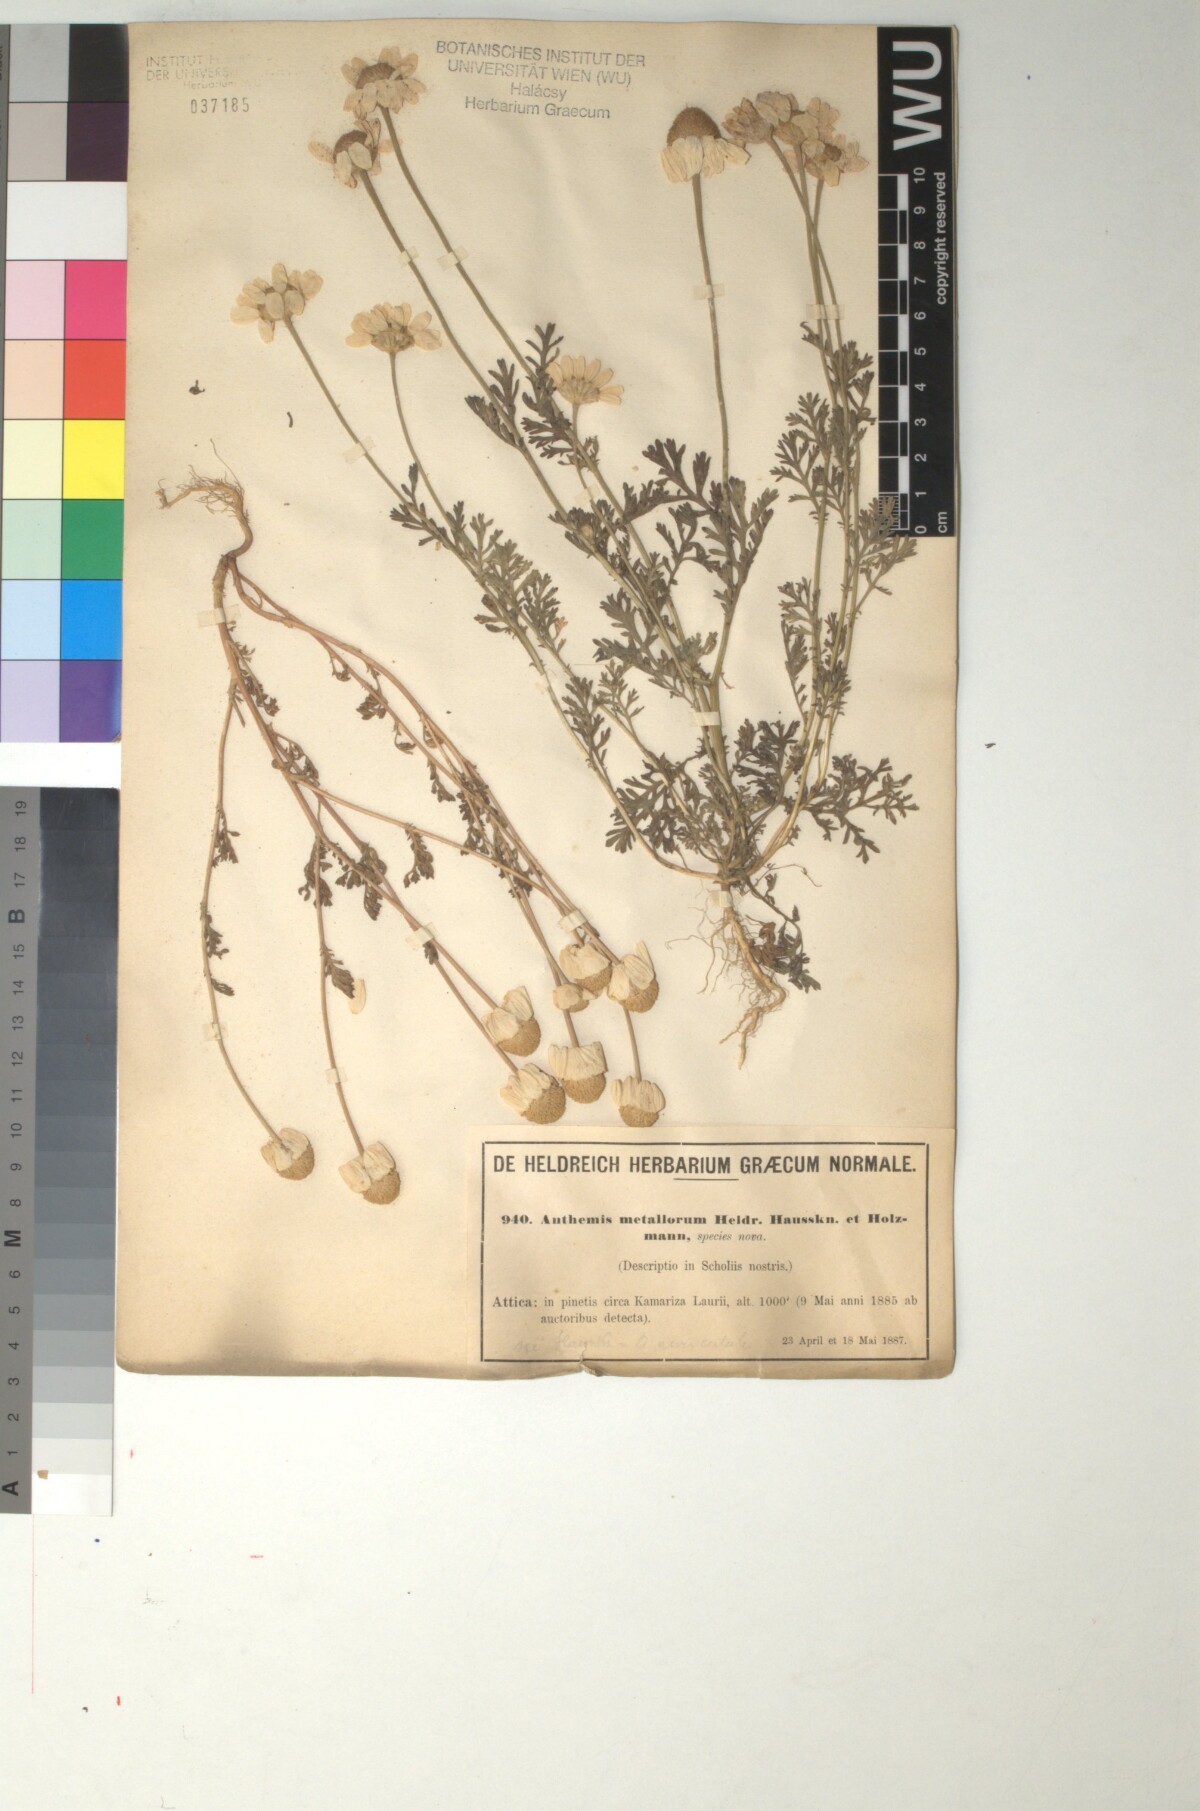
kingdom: Plantae
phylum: Tracheophyta
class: Magnoliopsida
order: Asterales
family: Asteraceae
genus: Anthemis
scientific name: Anthemis auriculata
